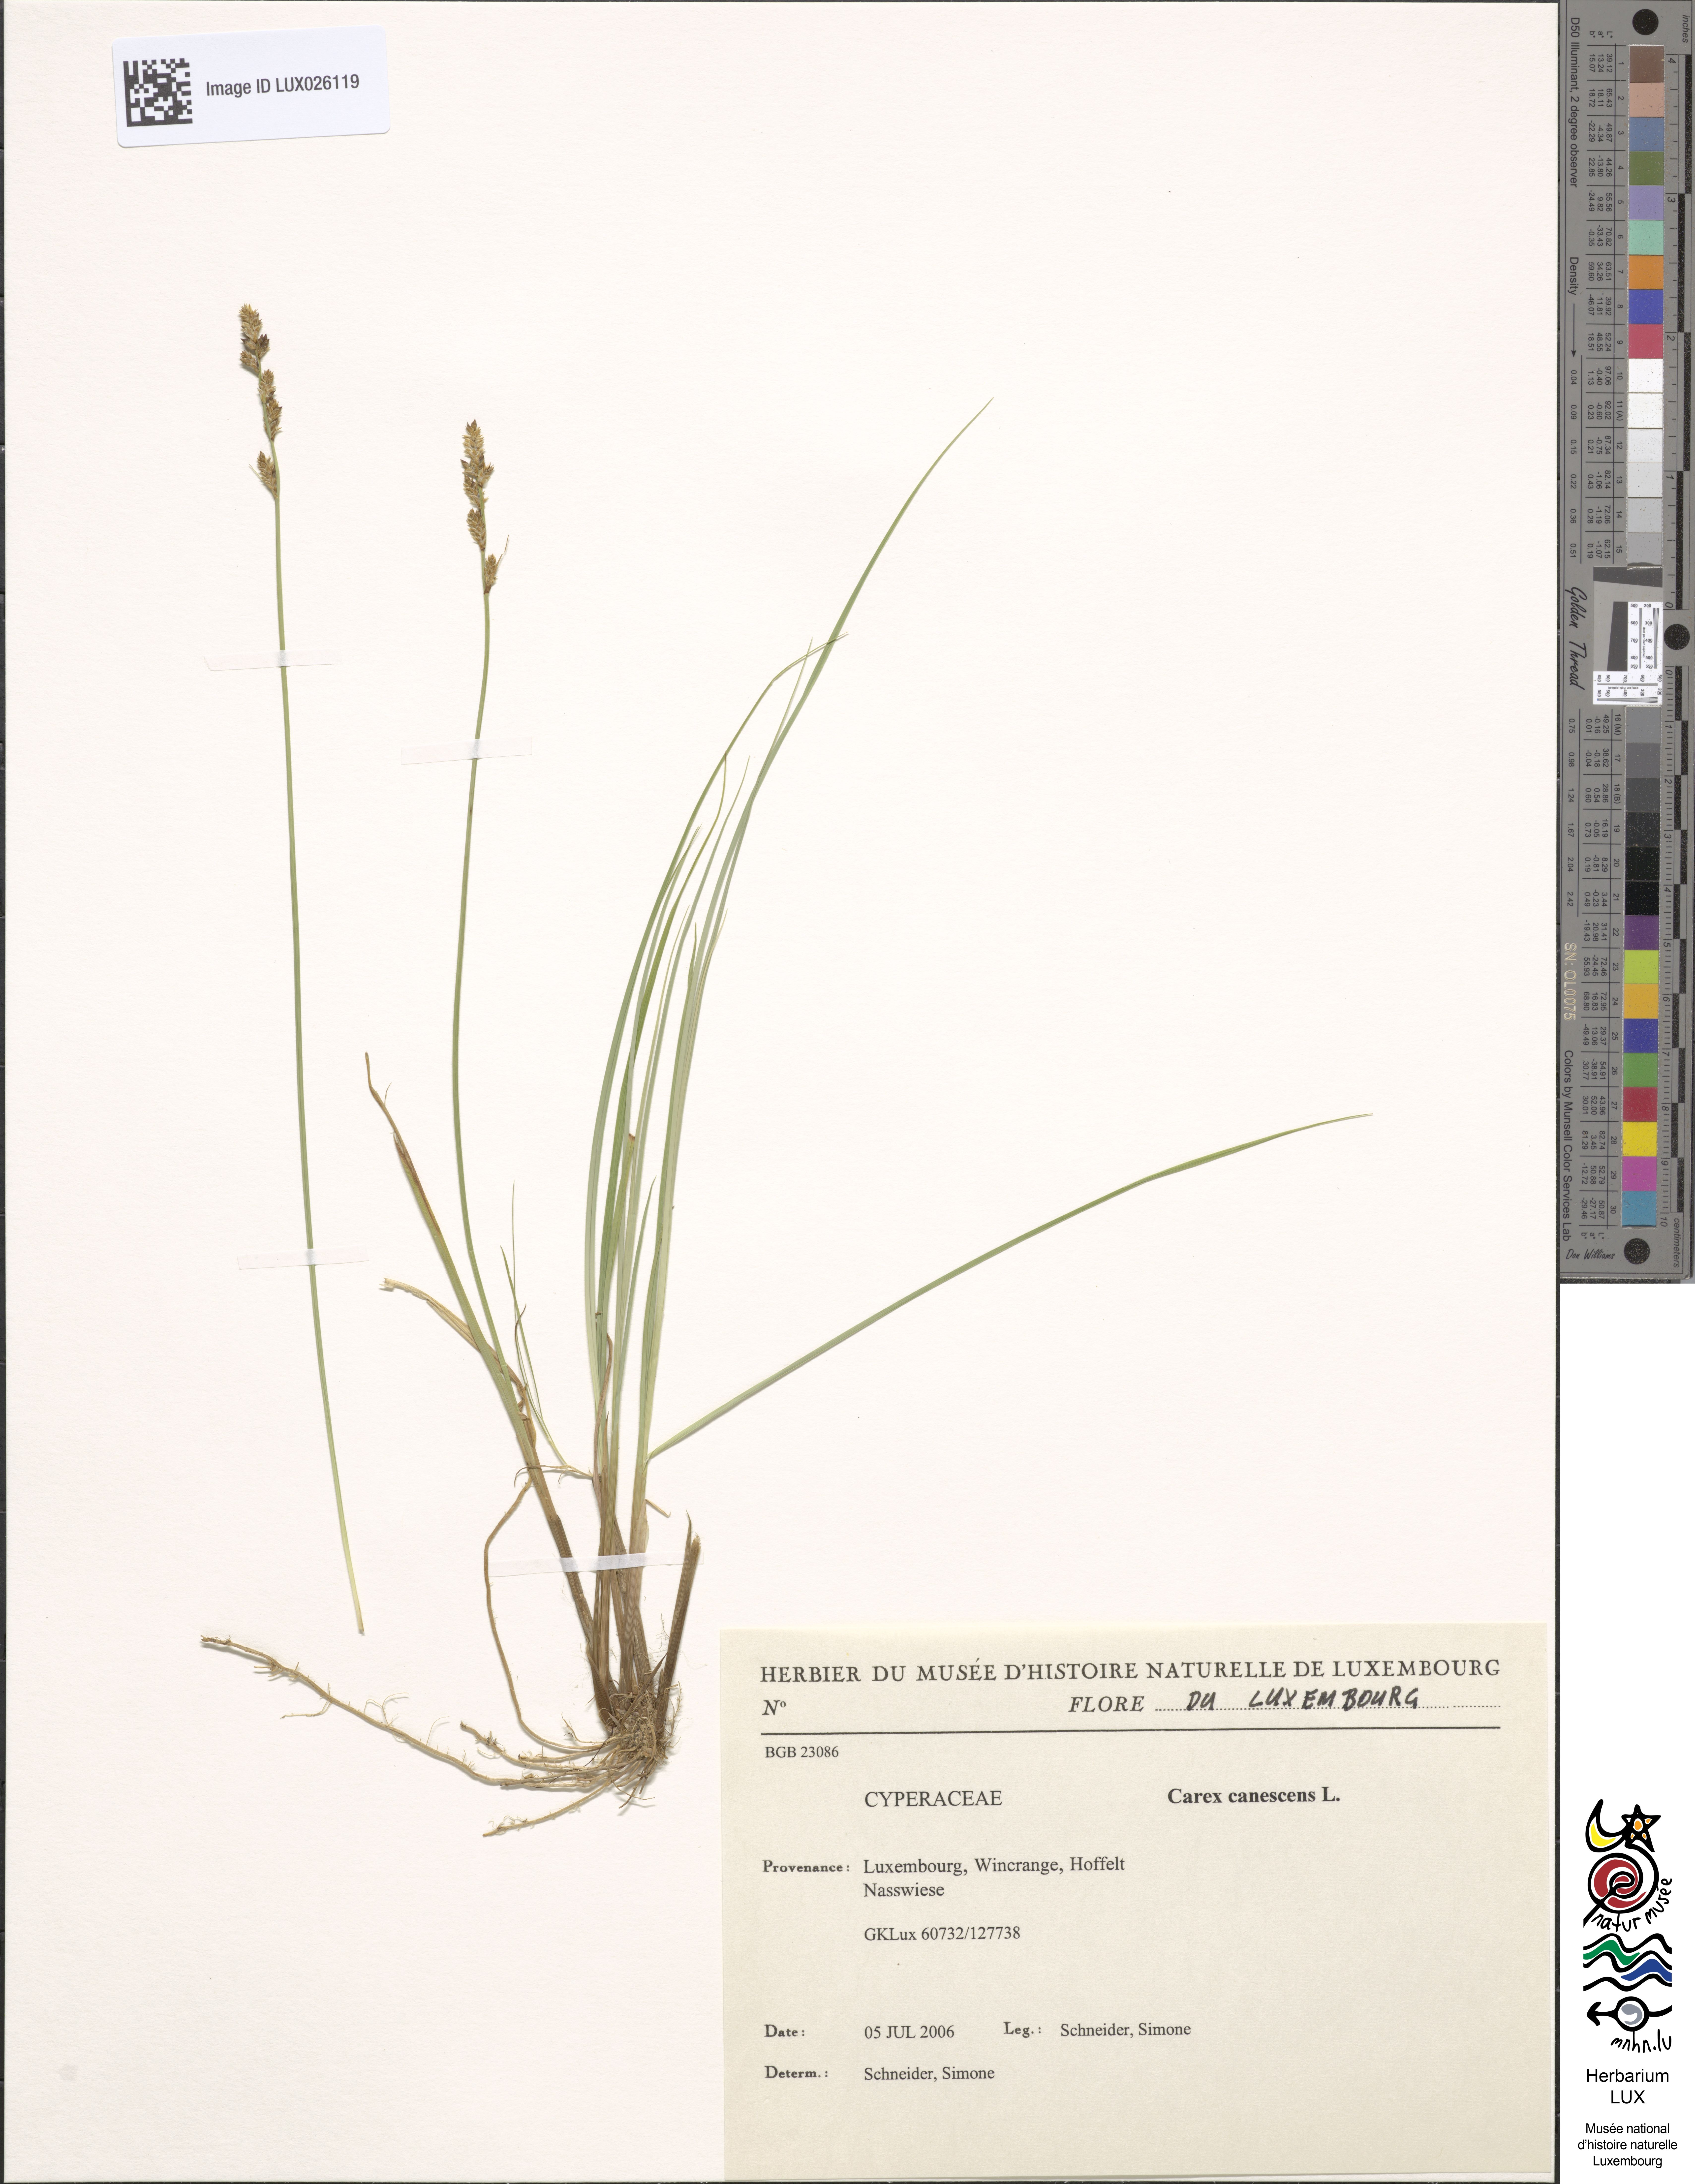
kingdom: Plantae
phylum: Tracheophyta
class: Liliopsida
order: Poales
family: Cyperaceae
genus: Carex
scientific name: Carex canescens
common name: White sedge
